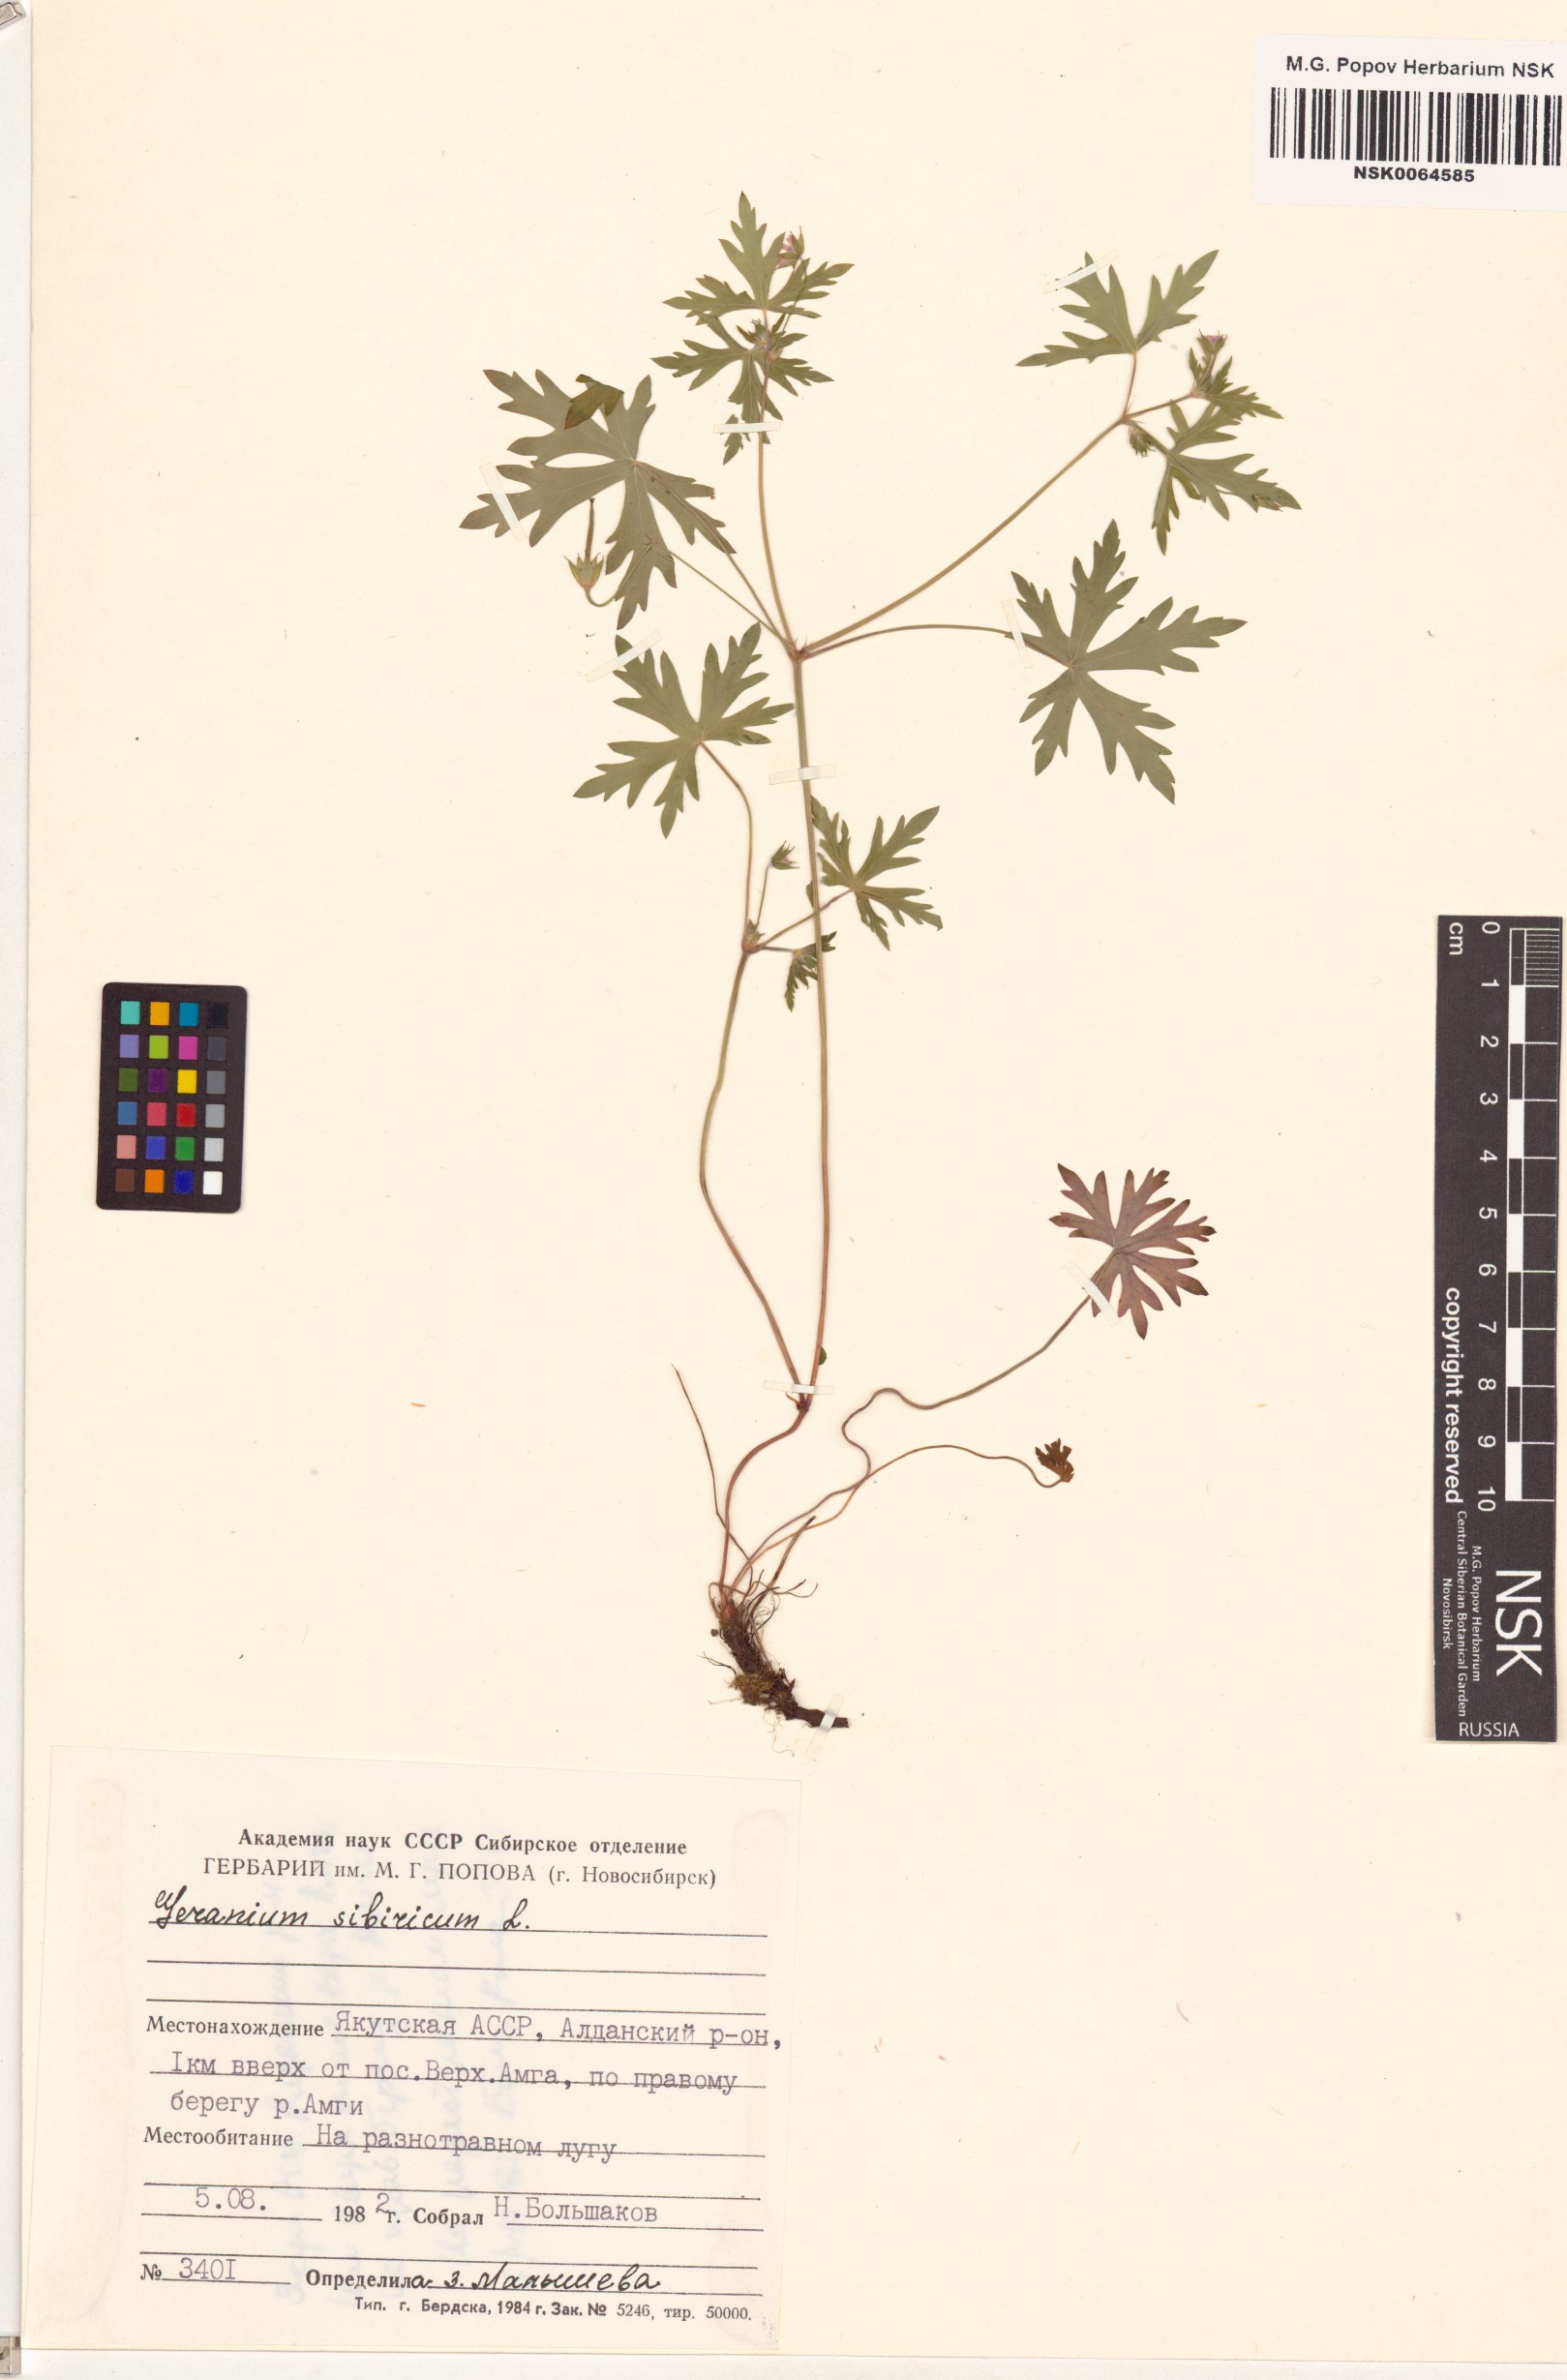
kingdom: Plantae
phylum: Tracheophyta
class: Magnoliopsida
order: Geraniales
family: Geraniaceae
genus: Geranium
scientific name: Geranium sibiricum
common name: Siberian crane's-bill
